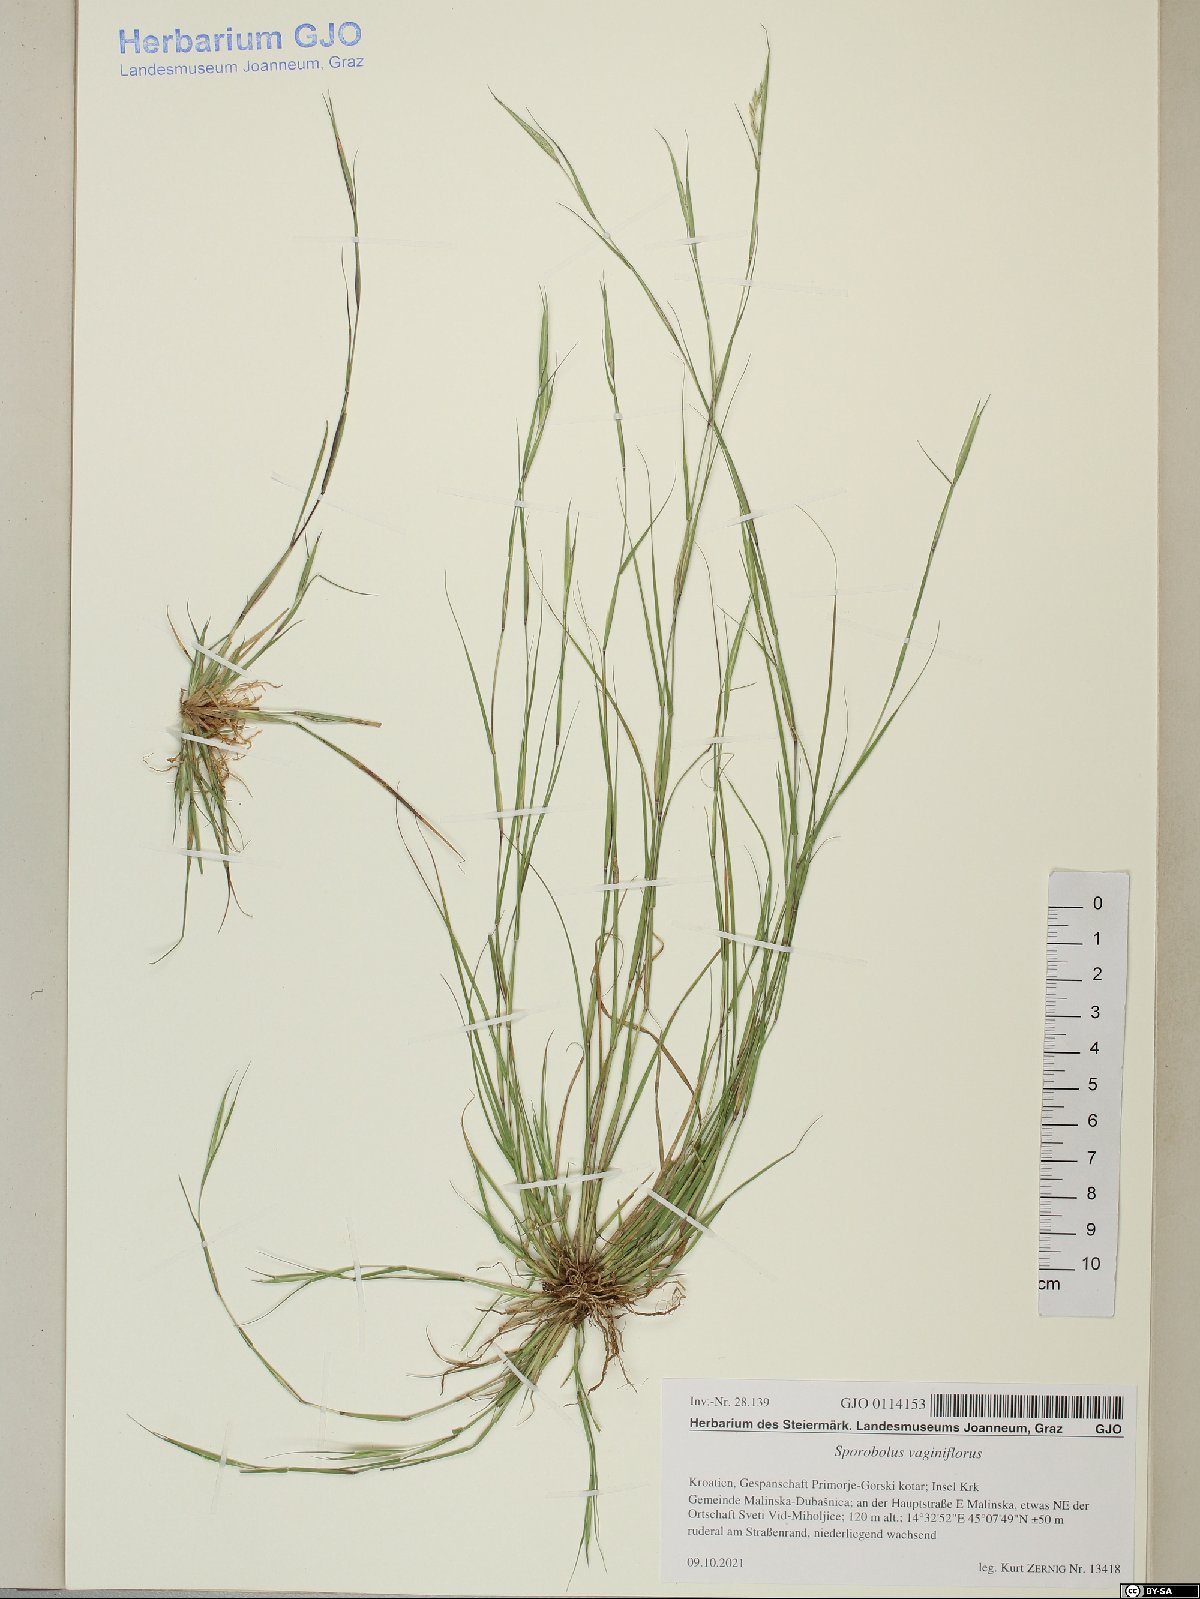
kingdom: Plantae
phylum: Tracheophyta
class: Liliopsida
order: Poales
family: Poaceae
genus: Sporobolus
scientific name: Sporobolus vaginiflorus
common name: Poverty dropseed
